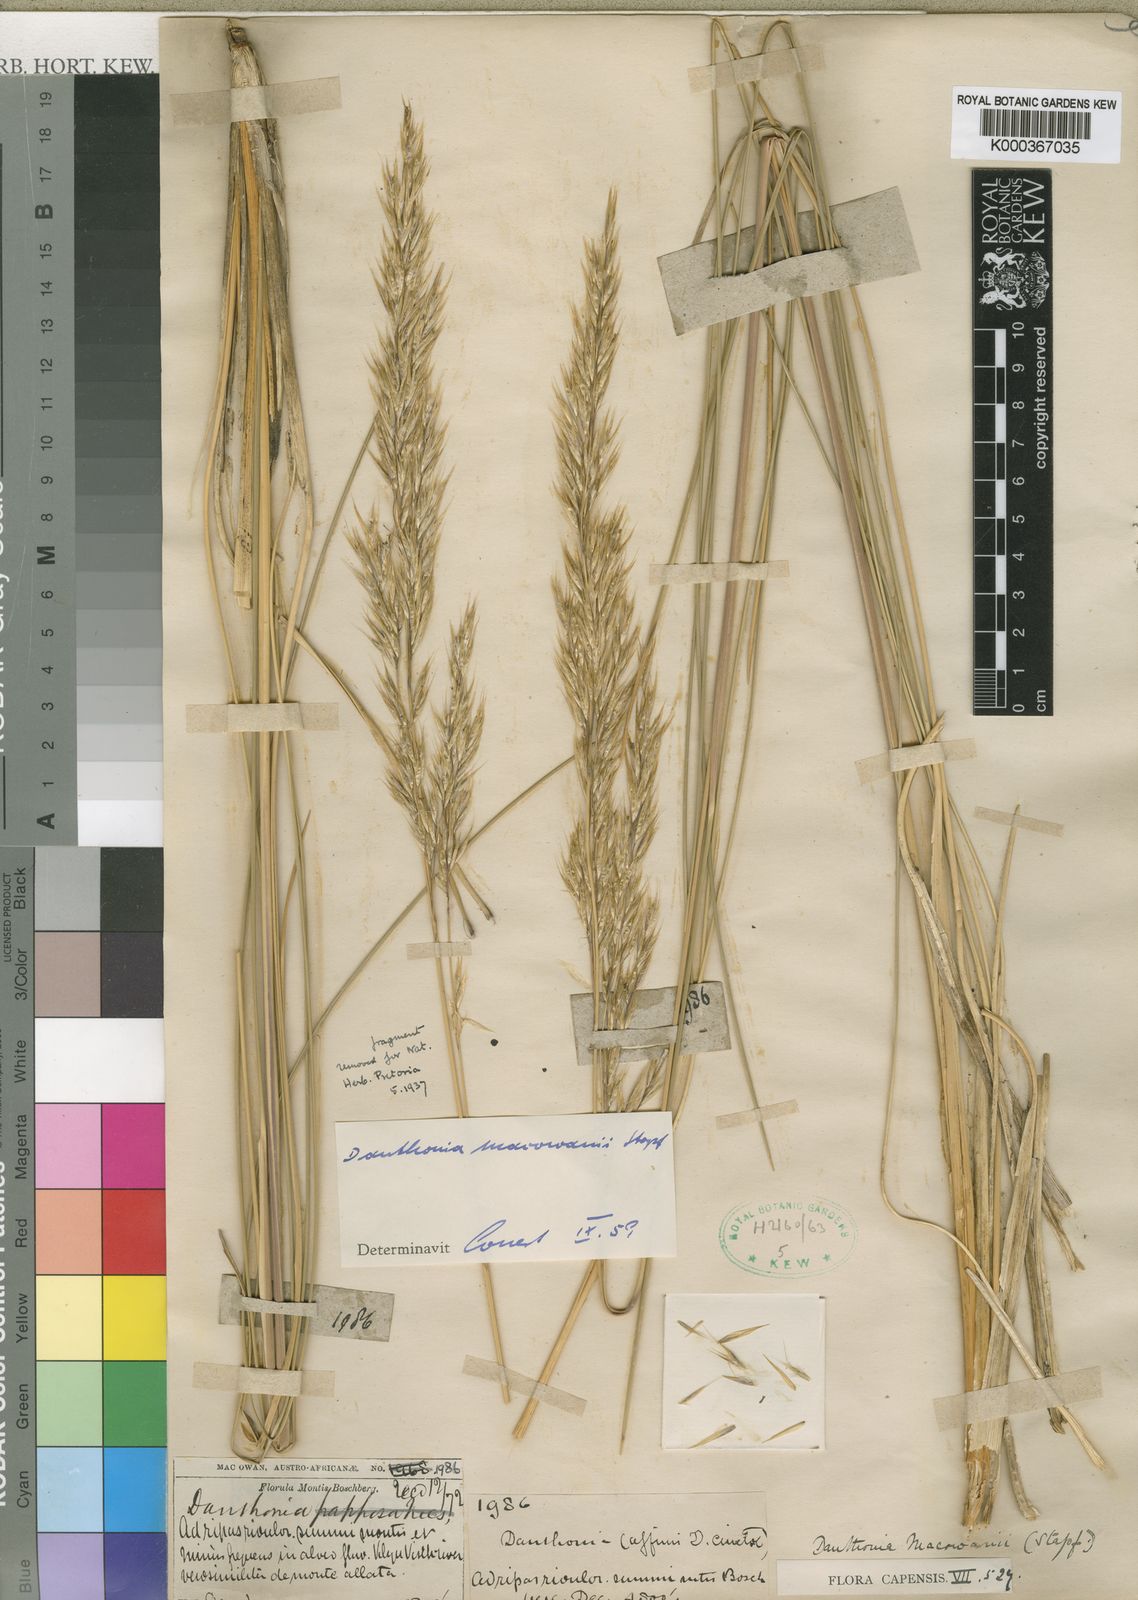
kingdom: Plantae
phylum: Tracheophyta
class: Liliopsida
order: Poales
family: Poaceae
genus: Rytidosperma
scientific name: Rytidosperma
